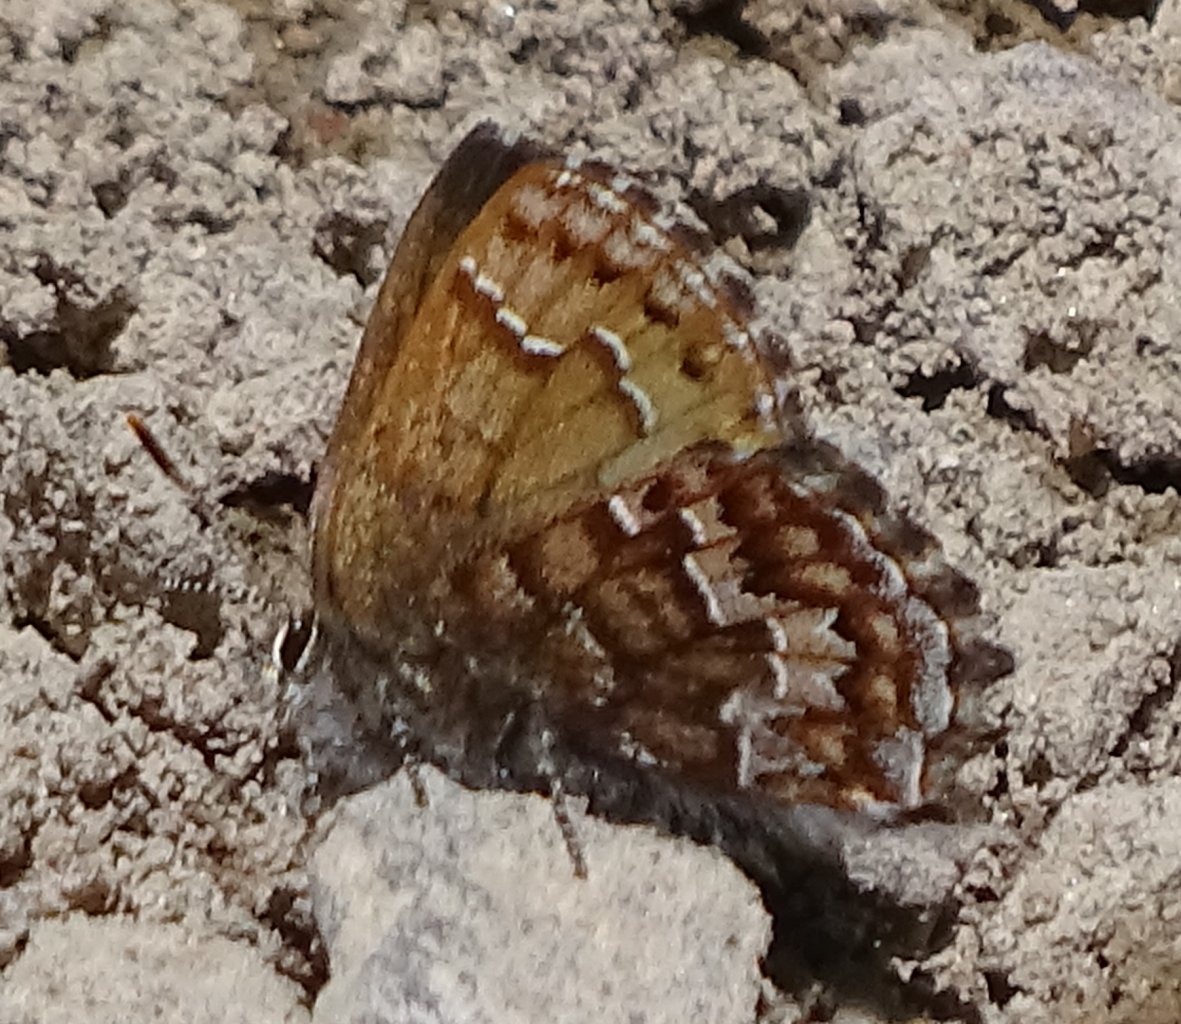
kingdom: Animalia
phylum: Arthropoda
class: Insecta
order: Lepidoptera
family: Lycaenidae
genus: Incisalia
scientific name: Incisalia niphon
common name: Eastern Pine Elfin
